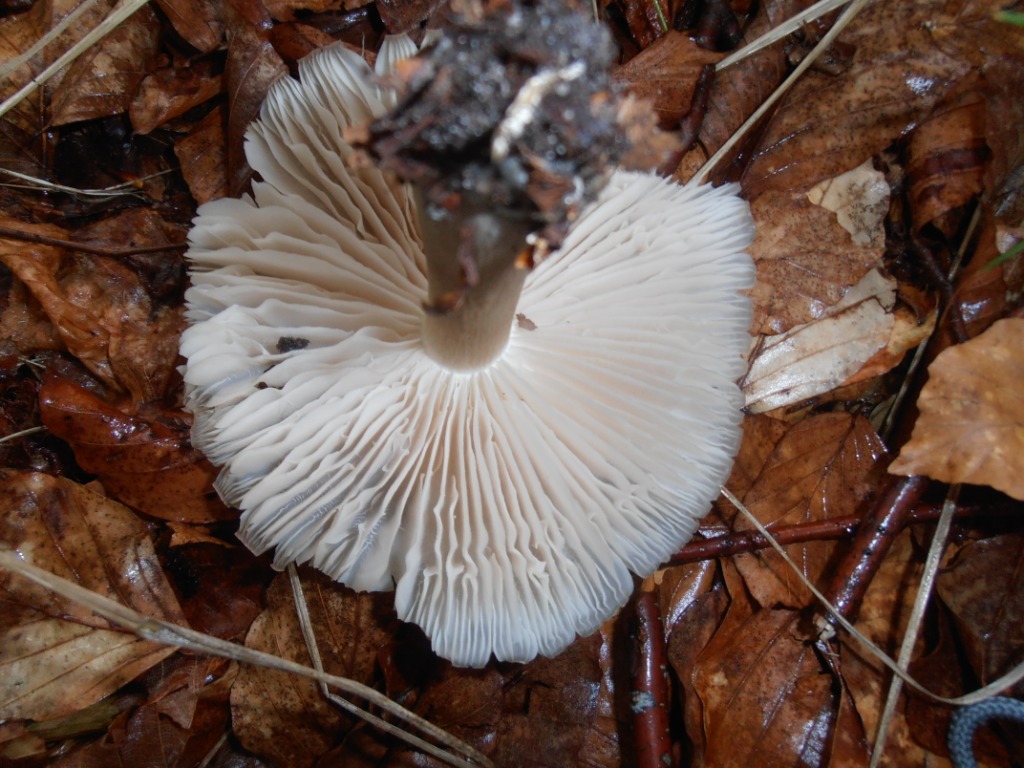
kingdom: Fungi
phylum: Basidiomycota
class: Agaricomycetes
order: Agaricales
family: Tricholomataceae
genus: Megacollybia
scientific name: Megacollybia platyphylla
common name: bredbladet væbnerhat
